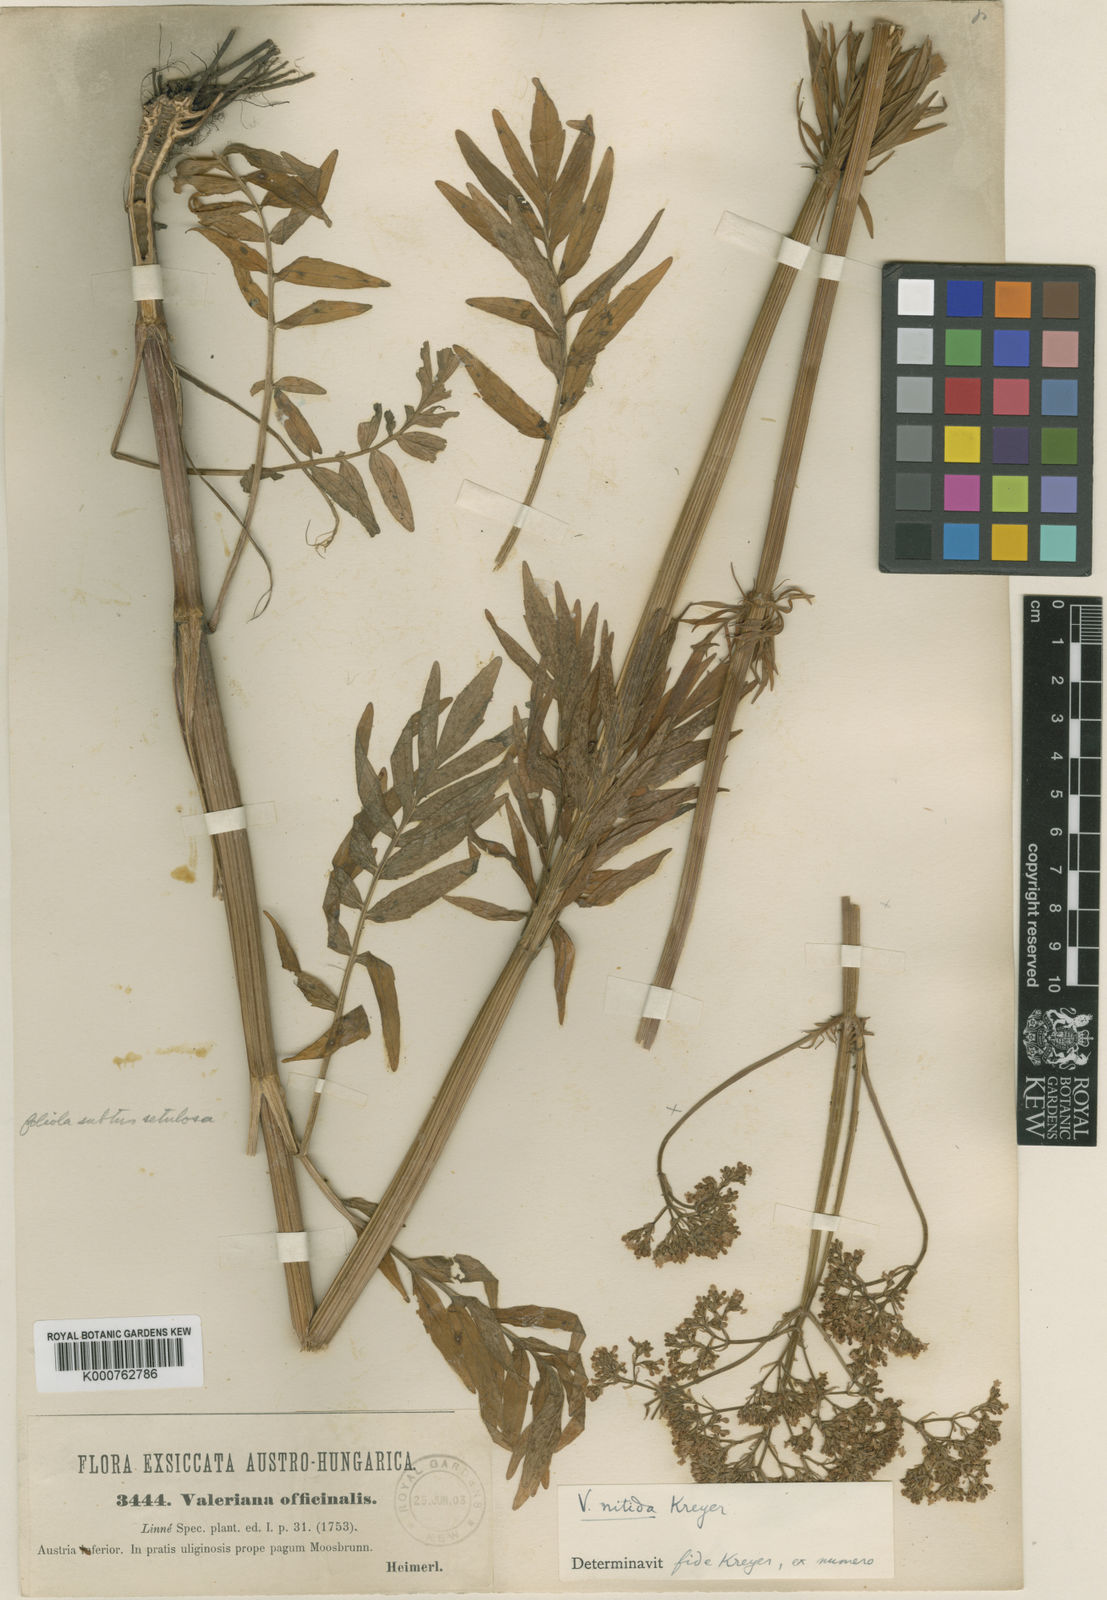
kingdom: Plantae
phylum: Tracheophyta
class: Magnoliopsida
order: Dipsacales
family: Caprifoliaceae
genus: Valeriana
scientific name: Valeriana officinalis
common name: Common valerian
